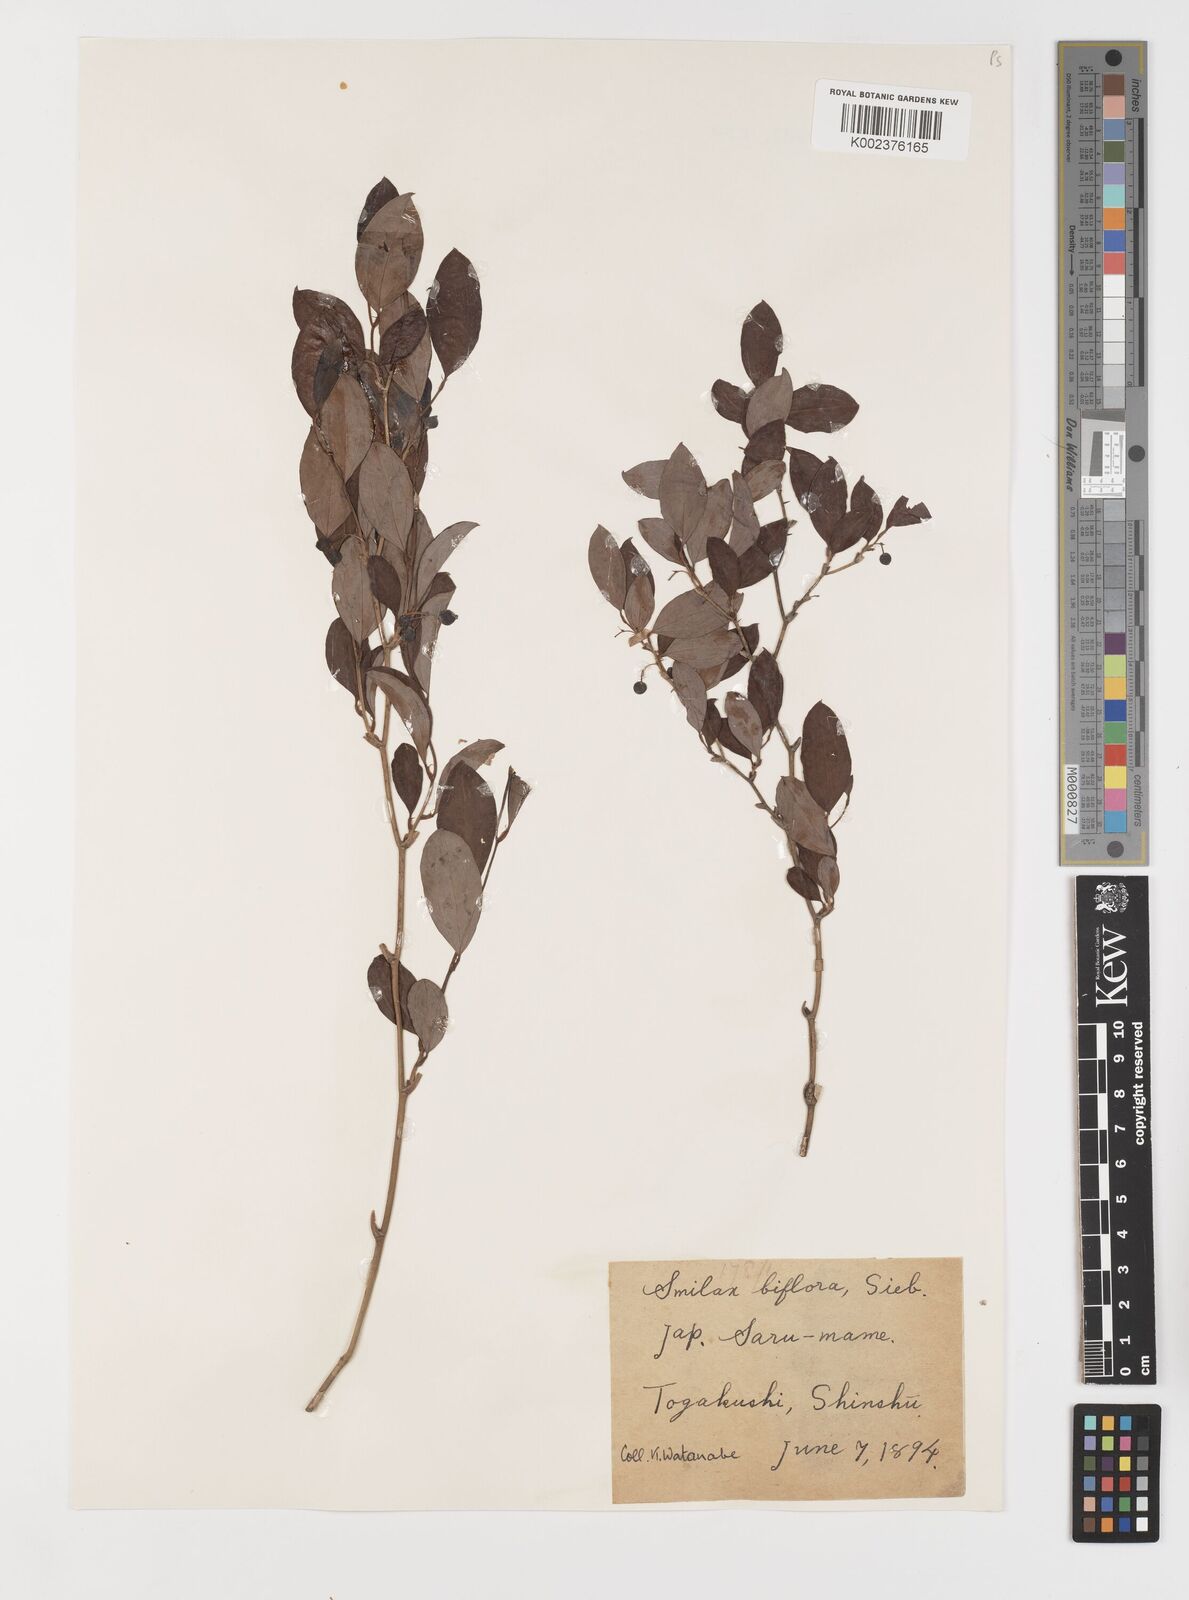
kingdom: Plantae
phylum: Tracheophyta
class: Liliopsida
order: Liliales
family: Smilacaceae
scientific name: Smilacaceae
